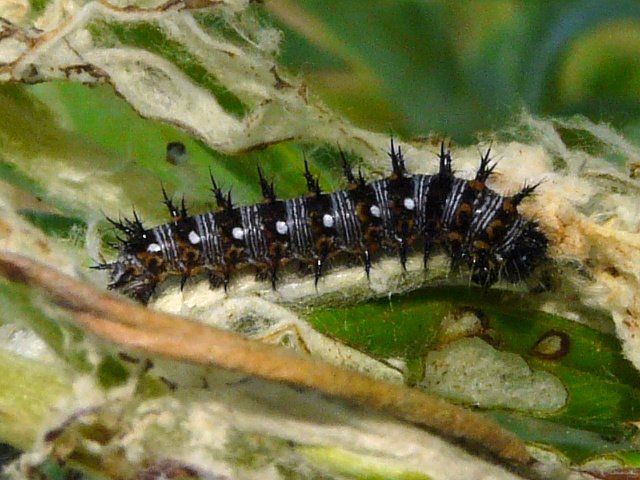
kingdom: Animalia
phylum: Arthropoda
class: Insecta
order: Lepidoptera
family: Nymphalidae
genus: Vanessa
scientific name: Vanessa virginiensis
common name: American Lady
